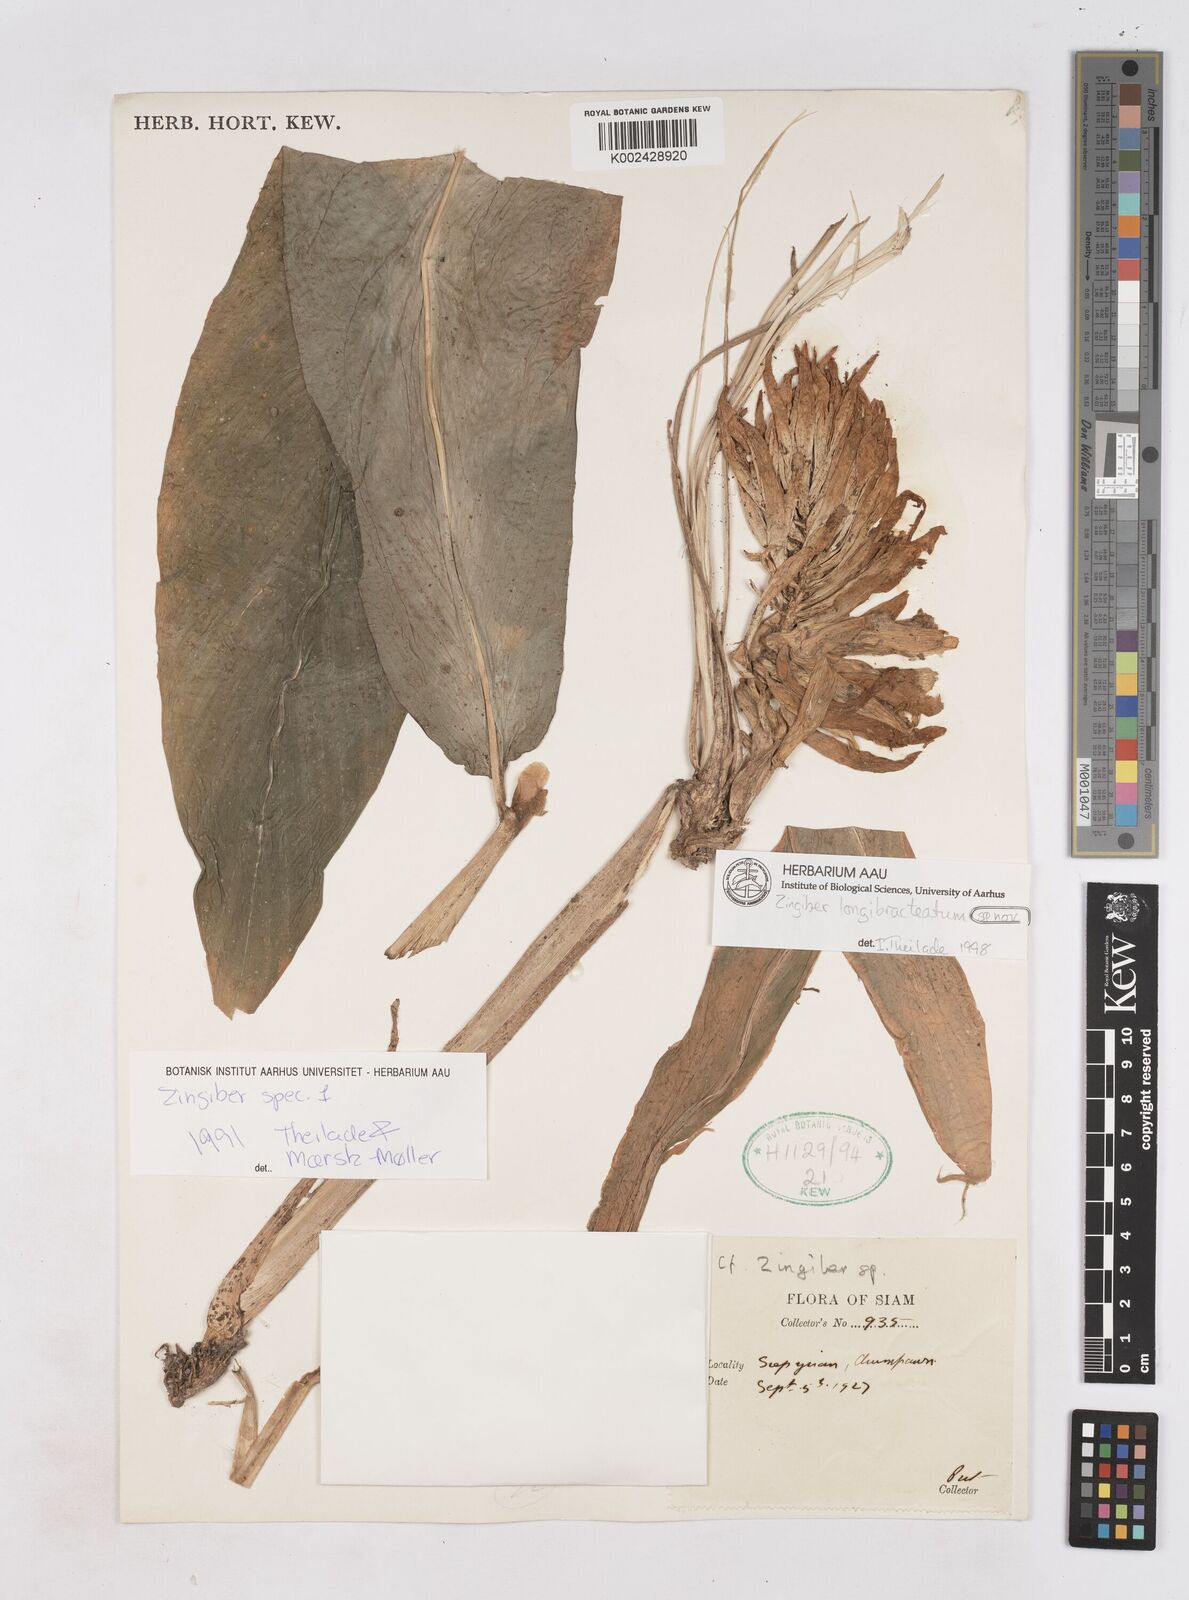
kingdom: Plantae
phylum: Tracheophyta
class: Liliopsida
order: Zingiberales
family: Zingiberaceae
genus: Zingiber
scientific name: Zingiber longibracteatum
